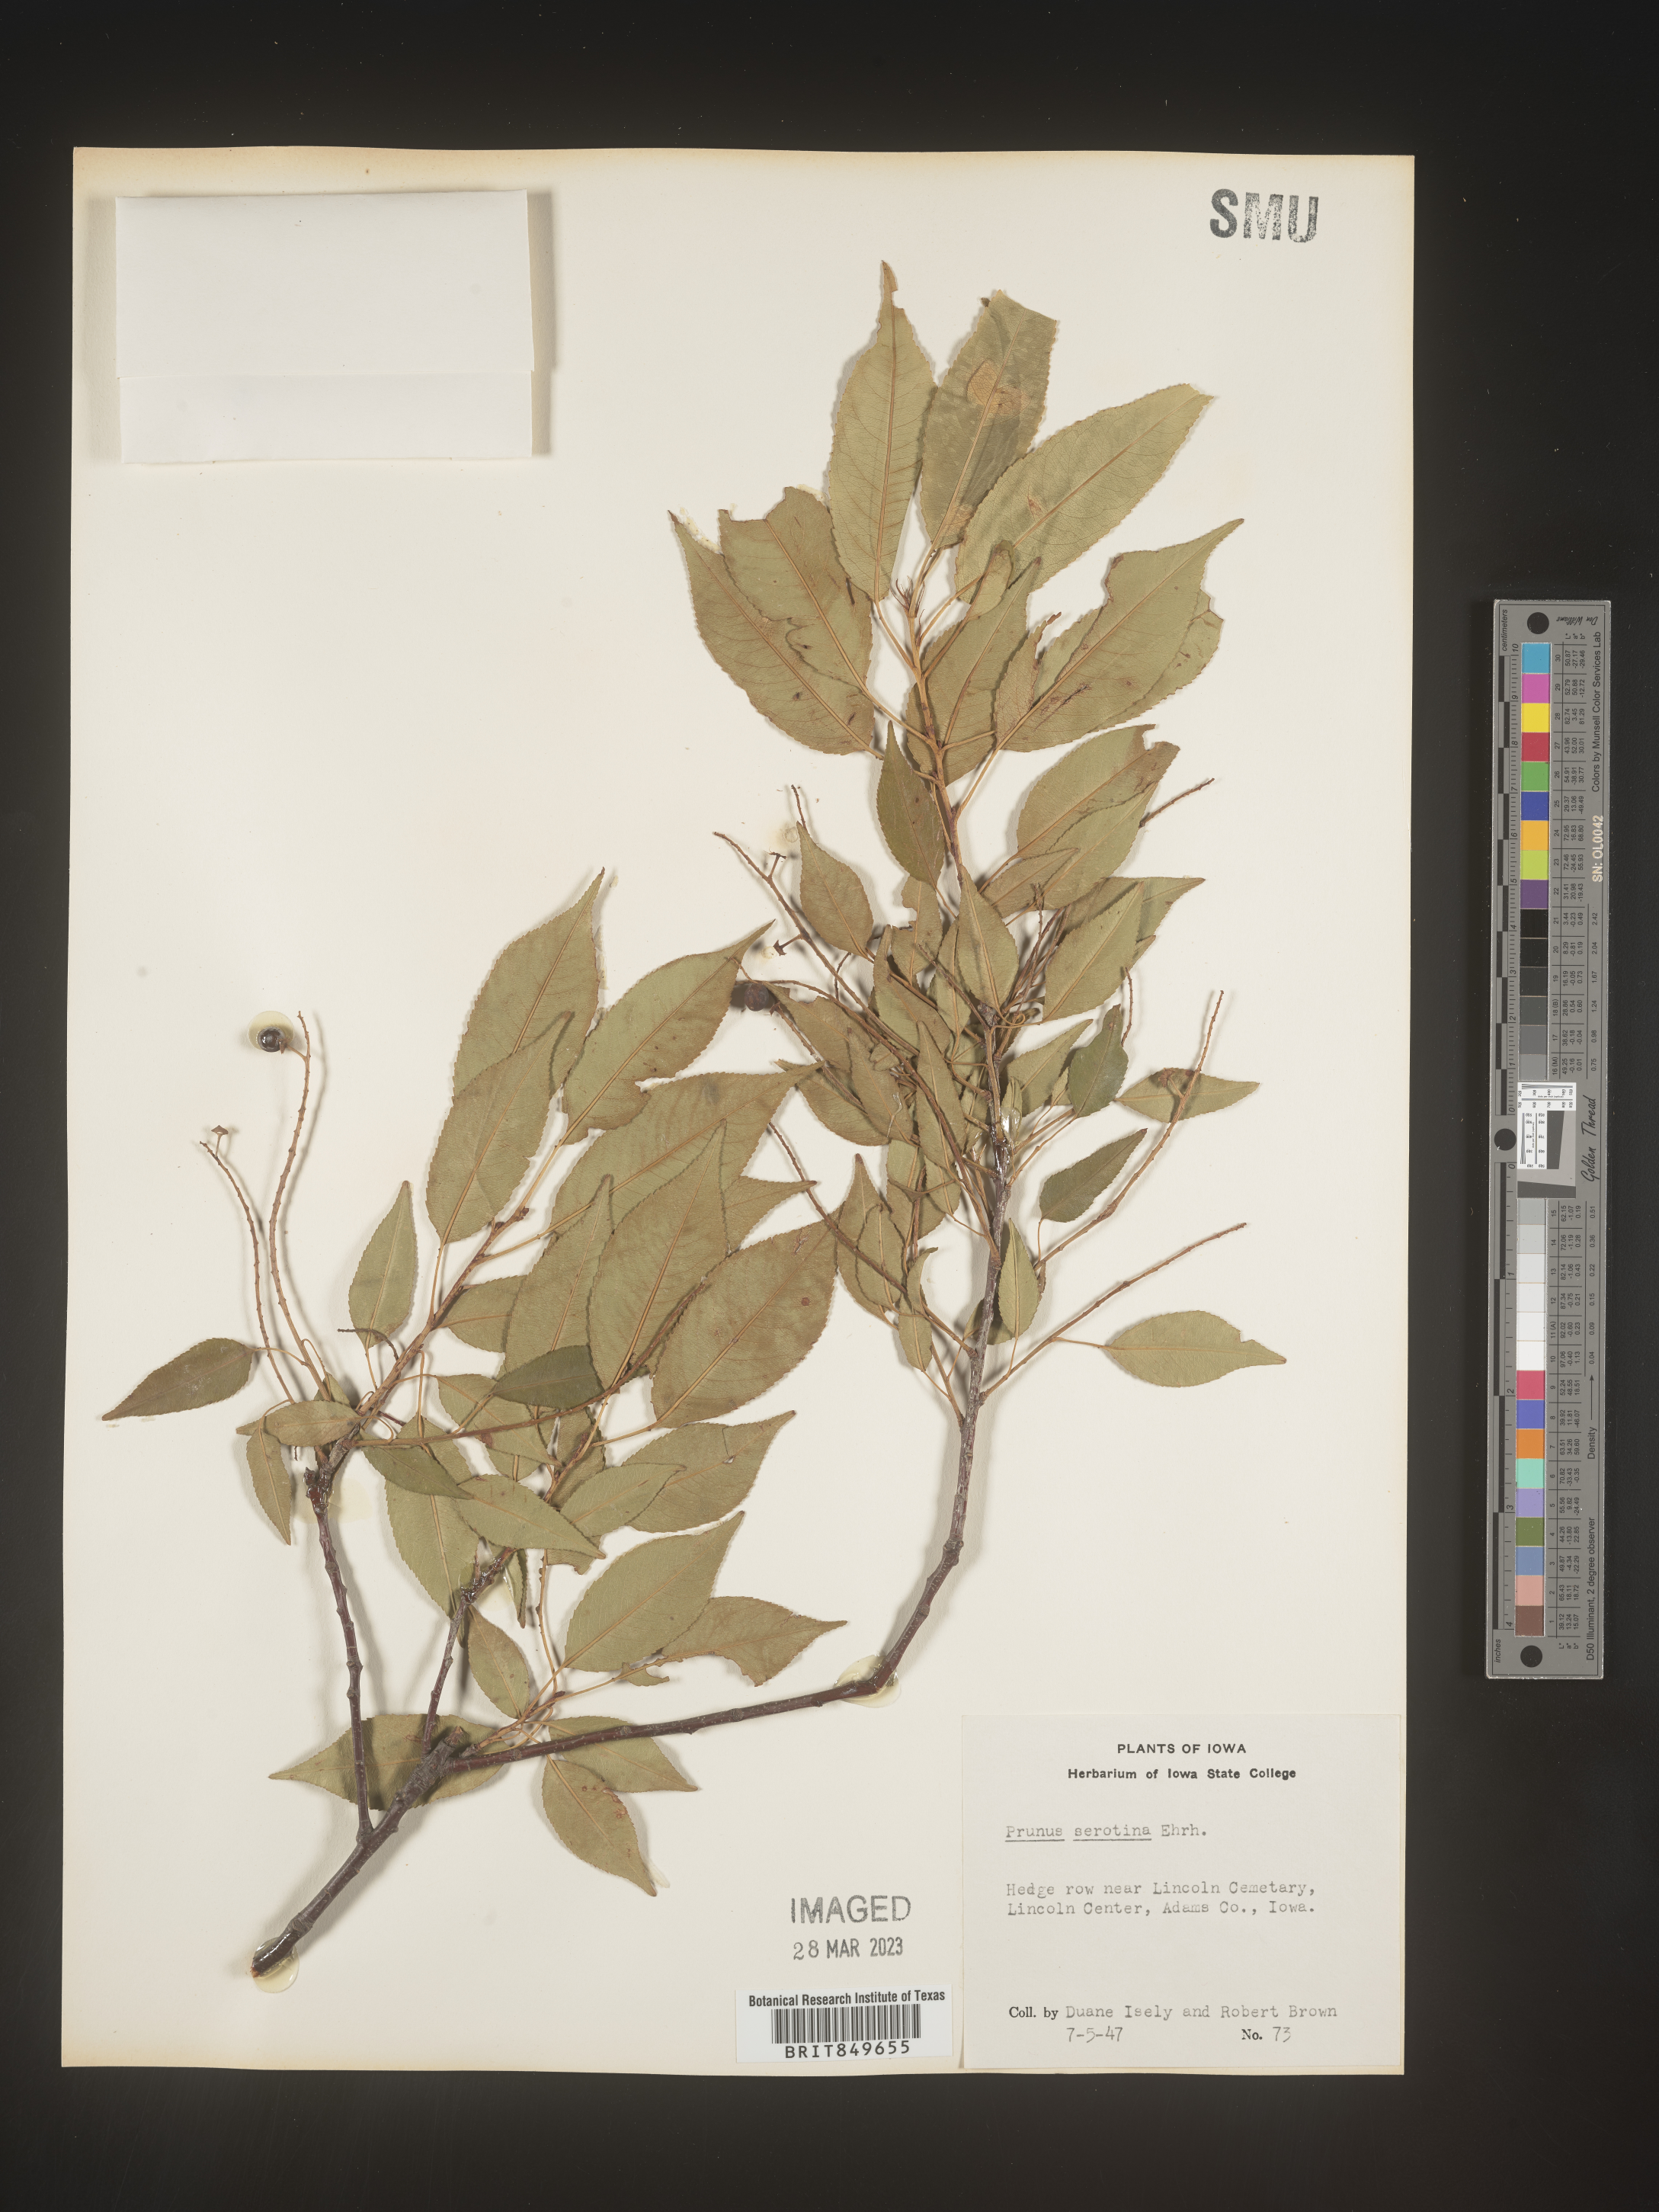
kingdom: Plantae
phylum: Tracheophyta
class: Magnoliopsida
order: Rosales
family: Rosaceae
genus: Prunus
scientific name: Prunus serotina
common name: Black cherry
